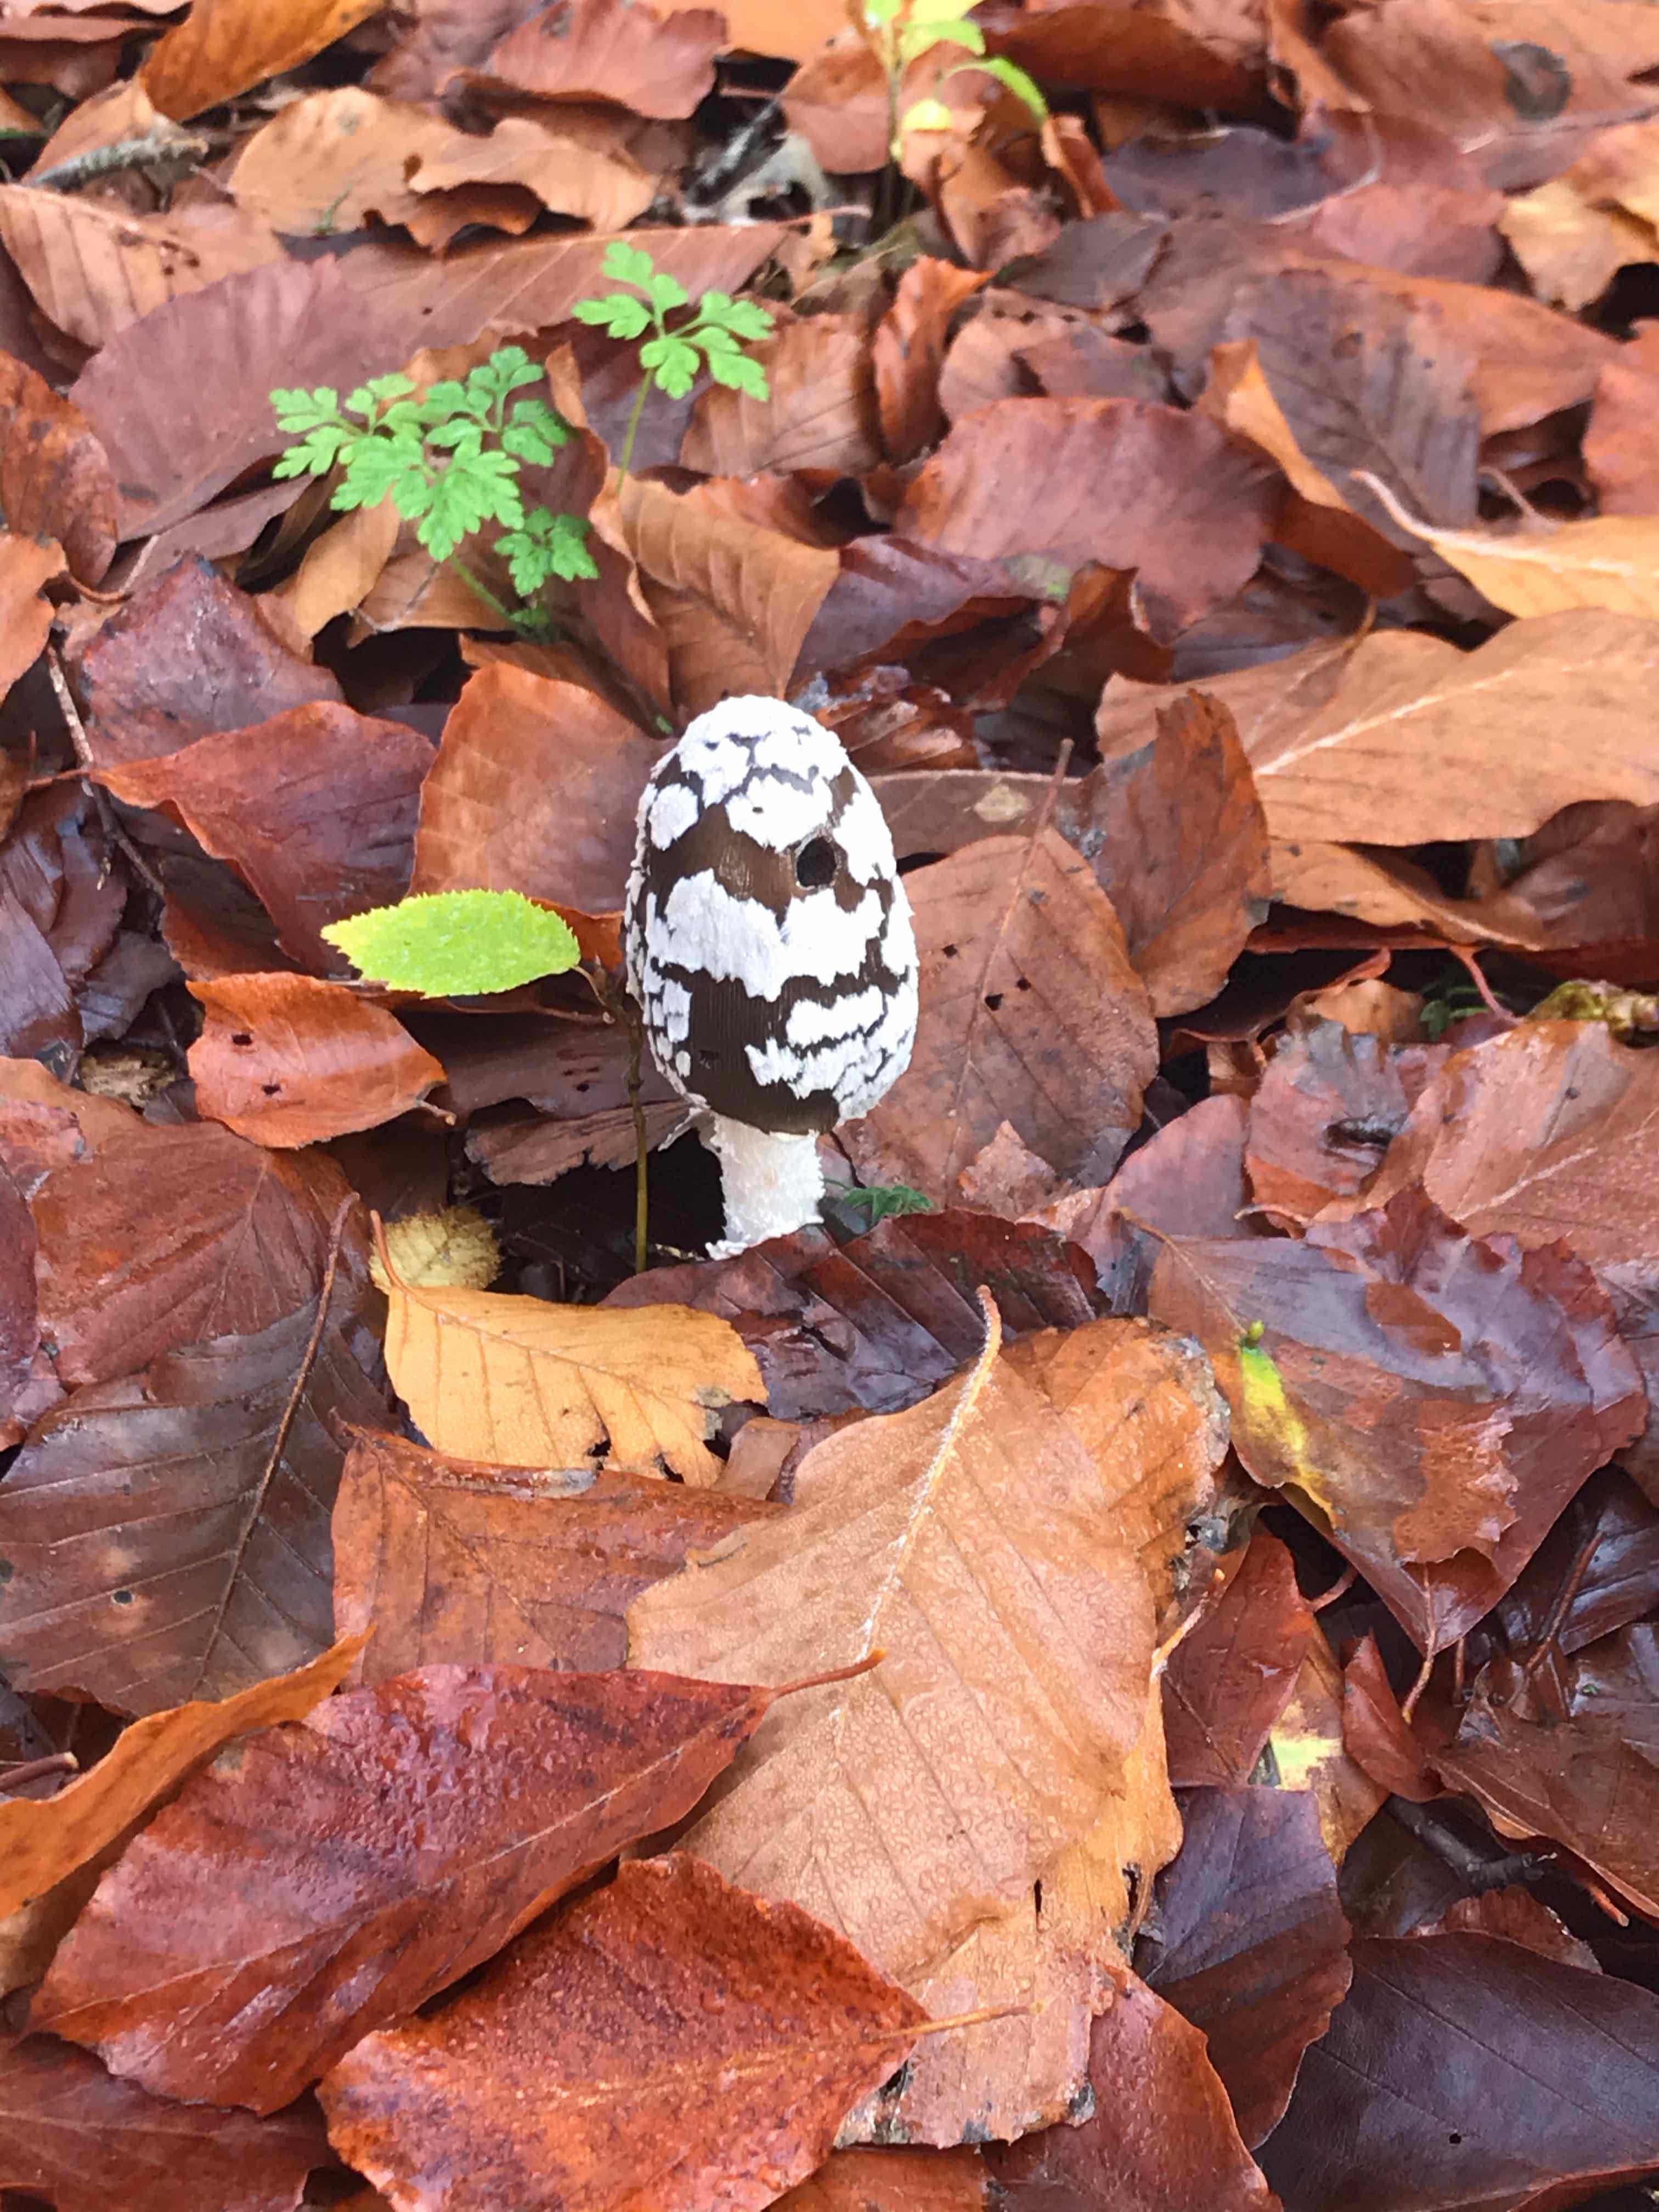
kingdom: Fungi
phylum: Basidiomycota
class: Agaricomycetes
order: Agaricales
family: Psathyrellaceae
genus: Coprinopsis
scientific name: Coprinopsis picacea
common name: skade-blækhat
